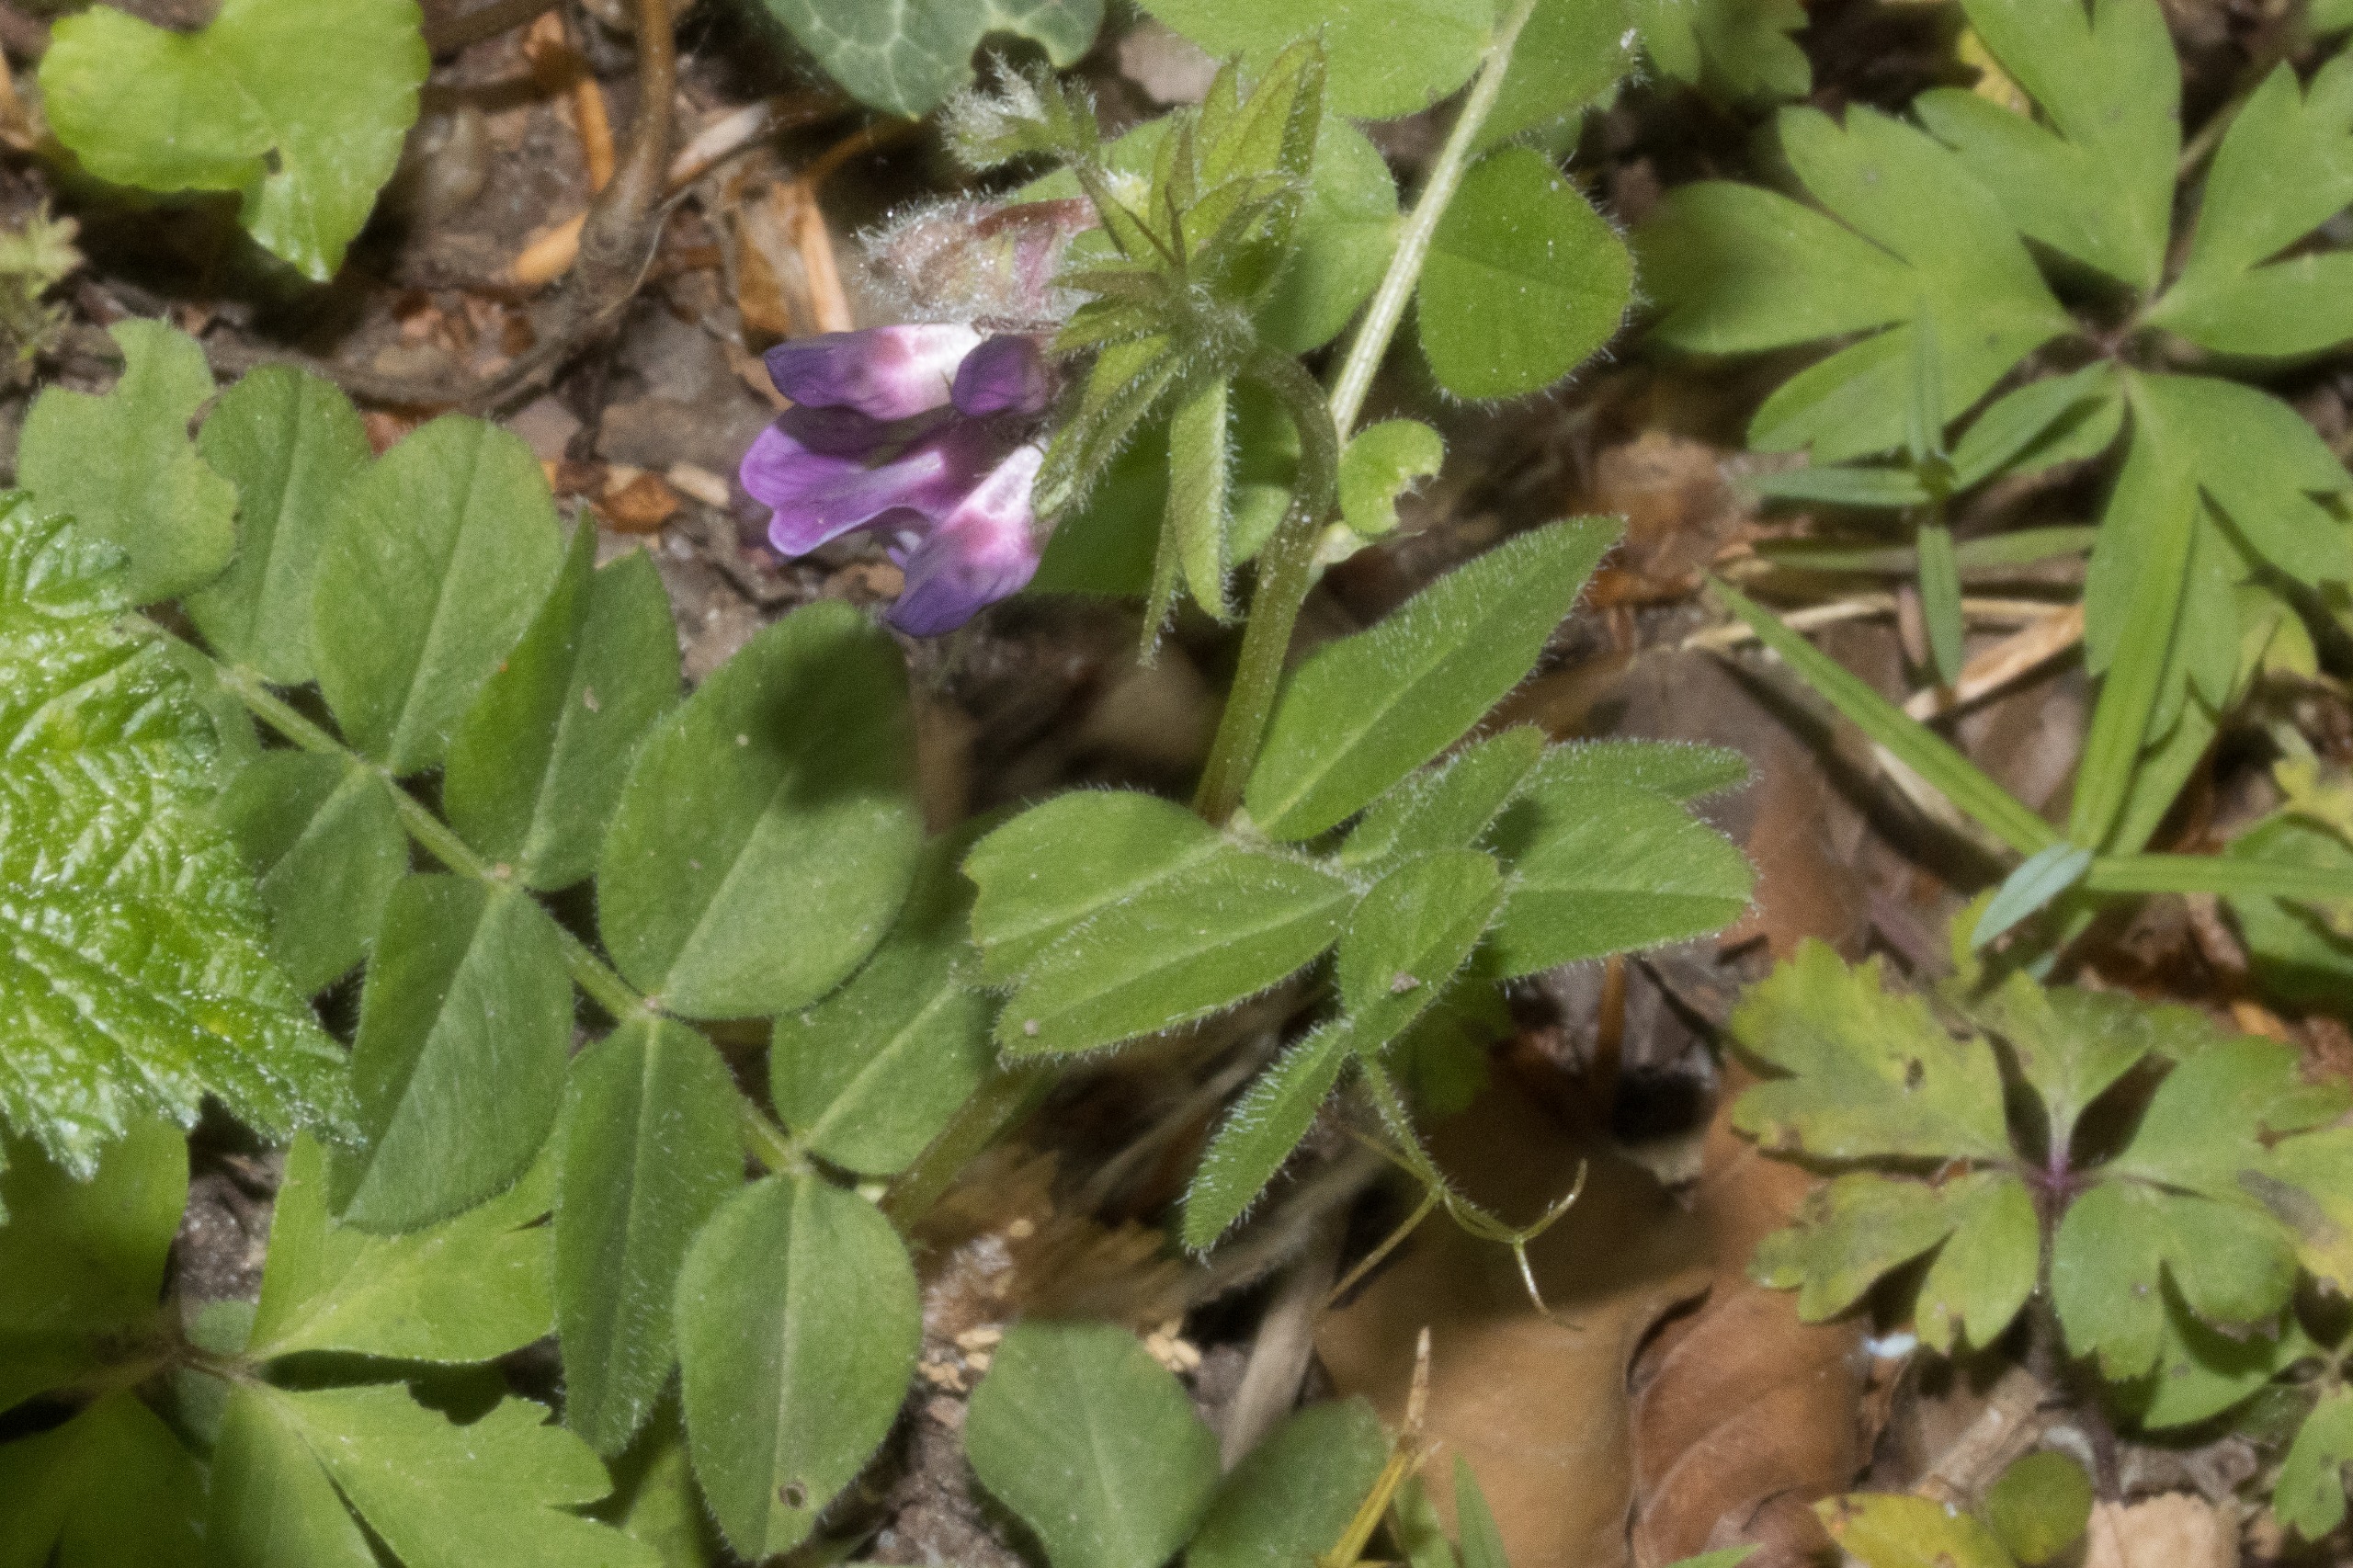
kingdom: Plantae
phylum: Tracheophyta
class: Magnoliopsida
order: Fabales
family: Fabaceae
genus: Vicia
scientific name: Vicia sepium
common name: Gærde-vikke
